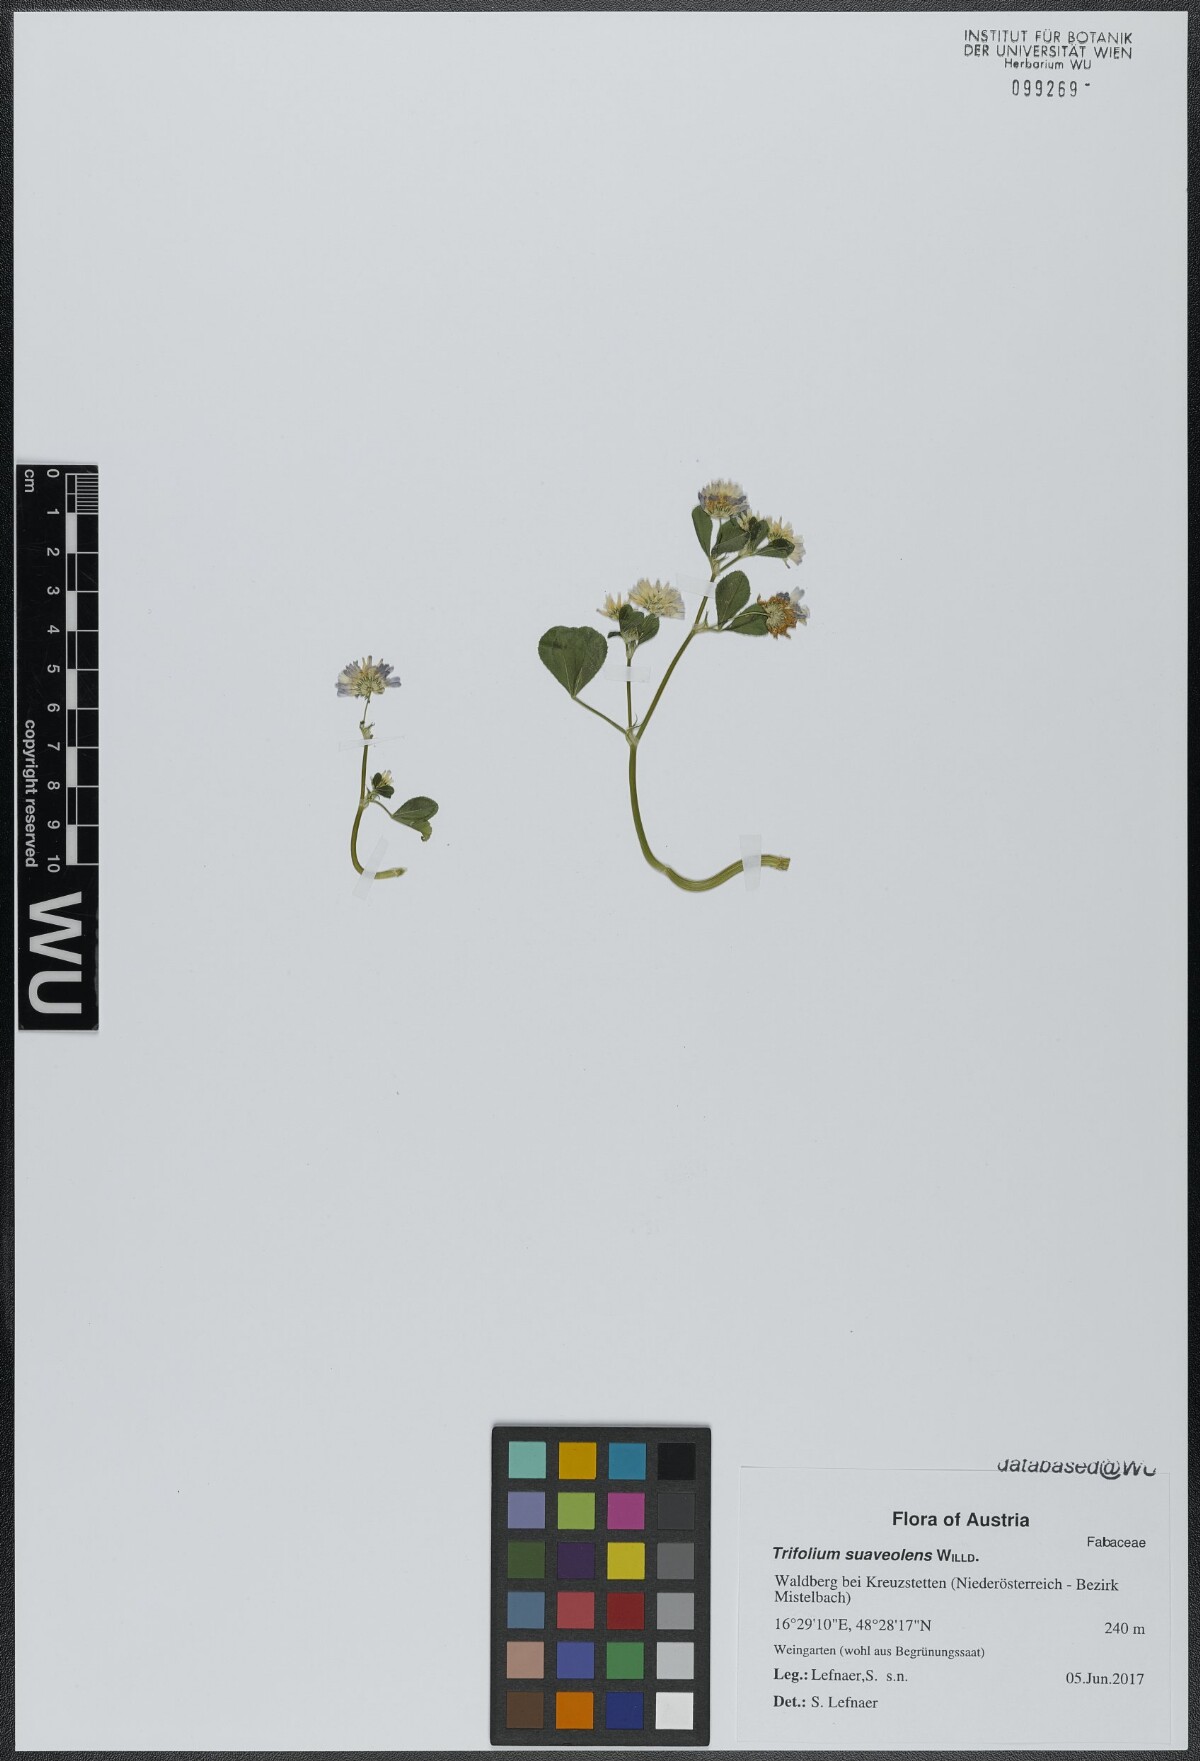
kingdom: Plantae
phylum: Tracheophyta
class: Magnoliopsida
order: Fabales
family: Fabaceae
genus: Trifolium
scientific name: Trifolium resupinatum
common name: Reversed clover
